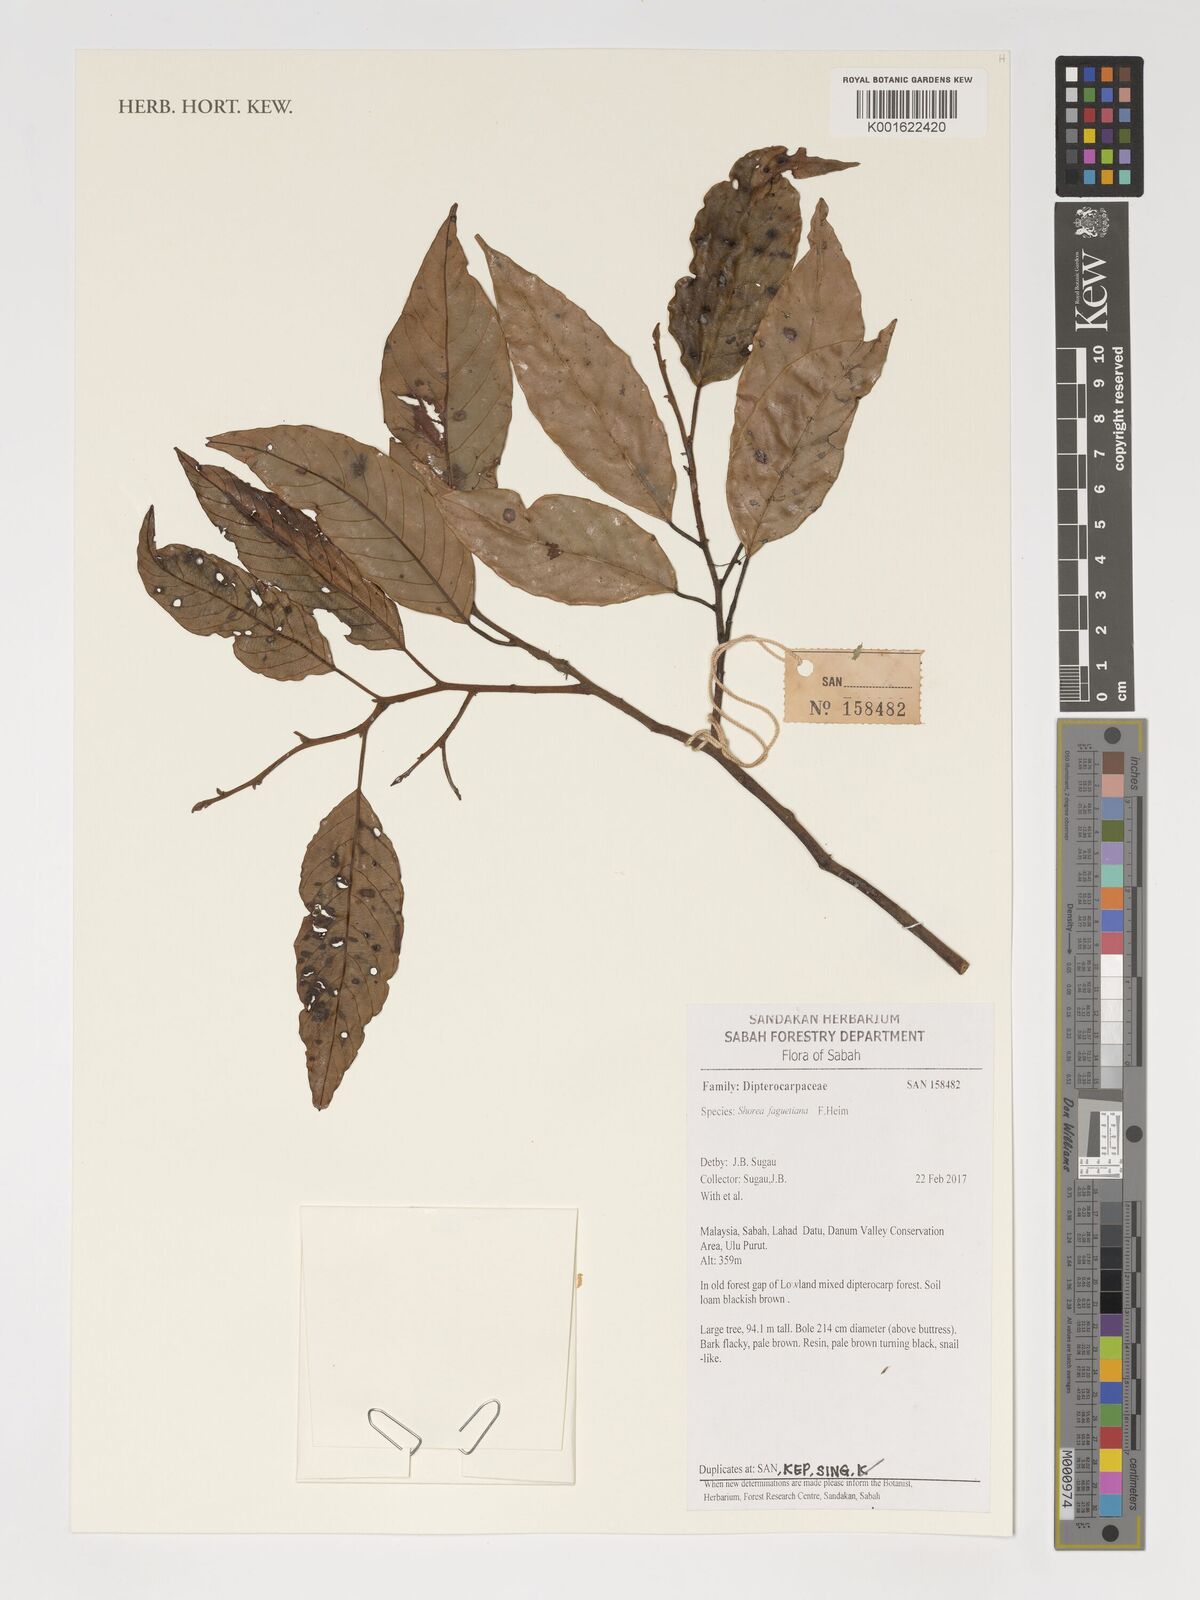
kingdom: Plantae
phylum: Tracheophyta
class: Magnoliopsida
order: Malvales
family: Dipterocarpaceae
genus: Shorea
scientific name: Shorea faguetiana
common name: Yellow meranti
